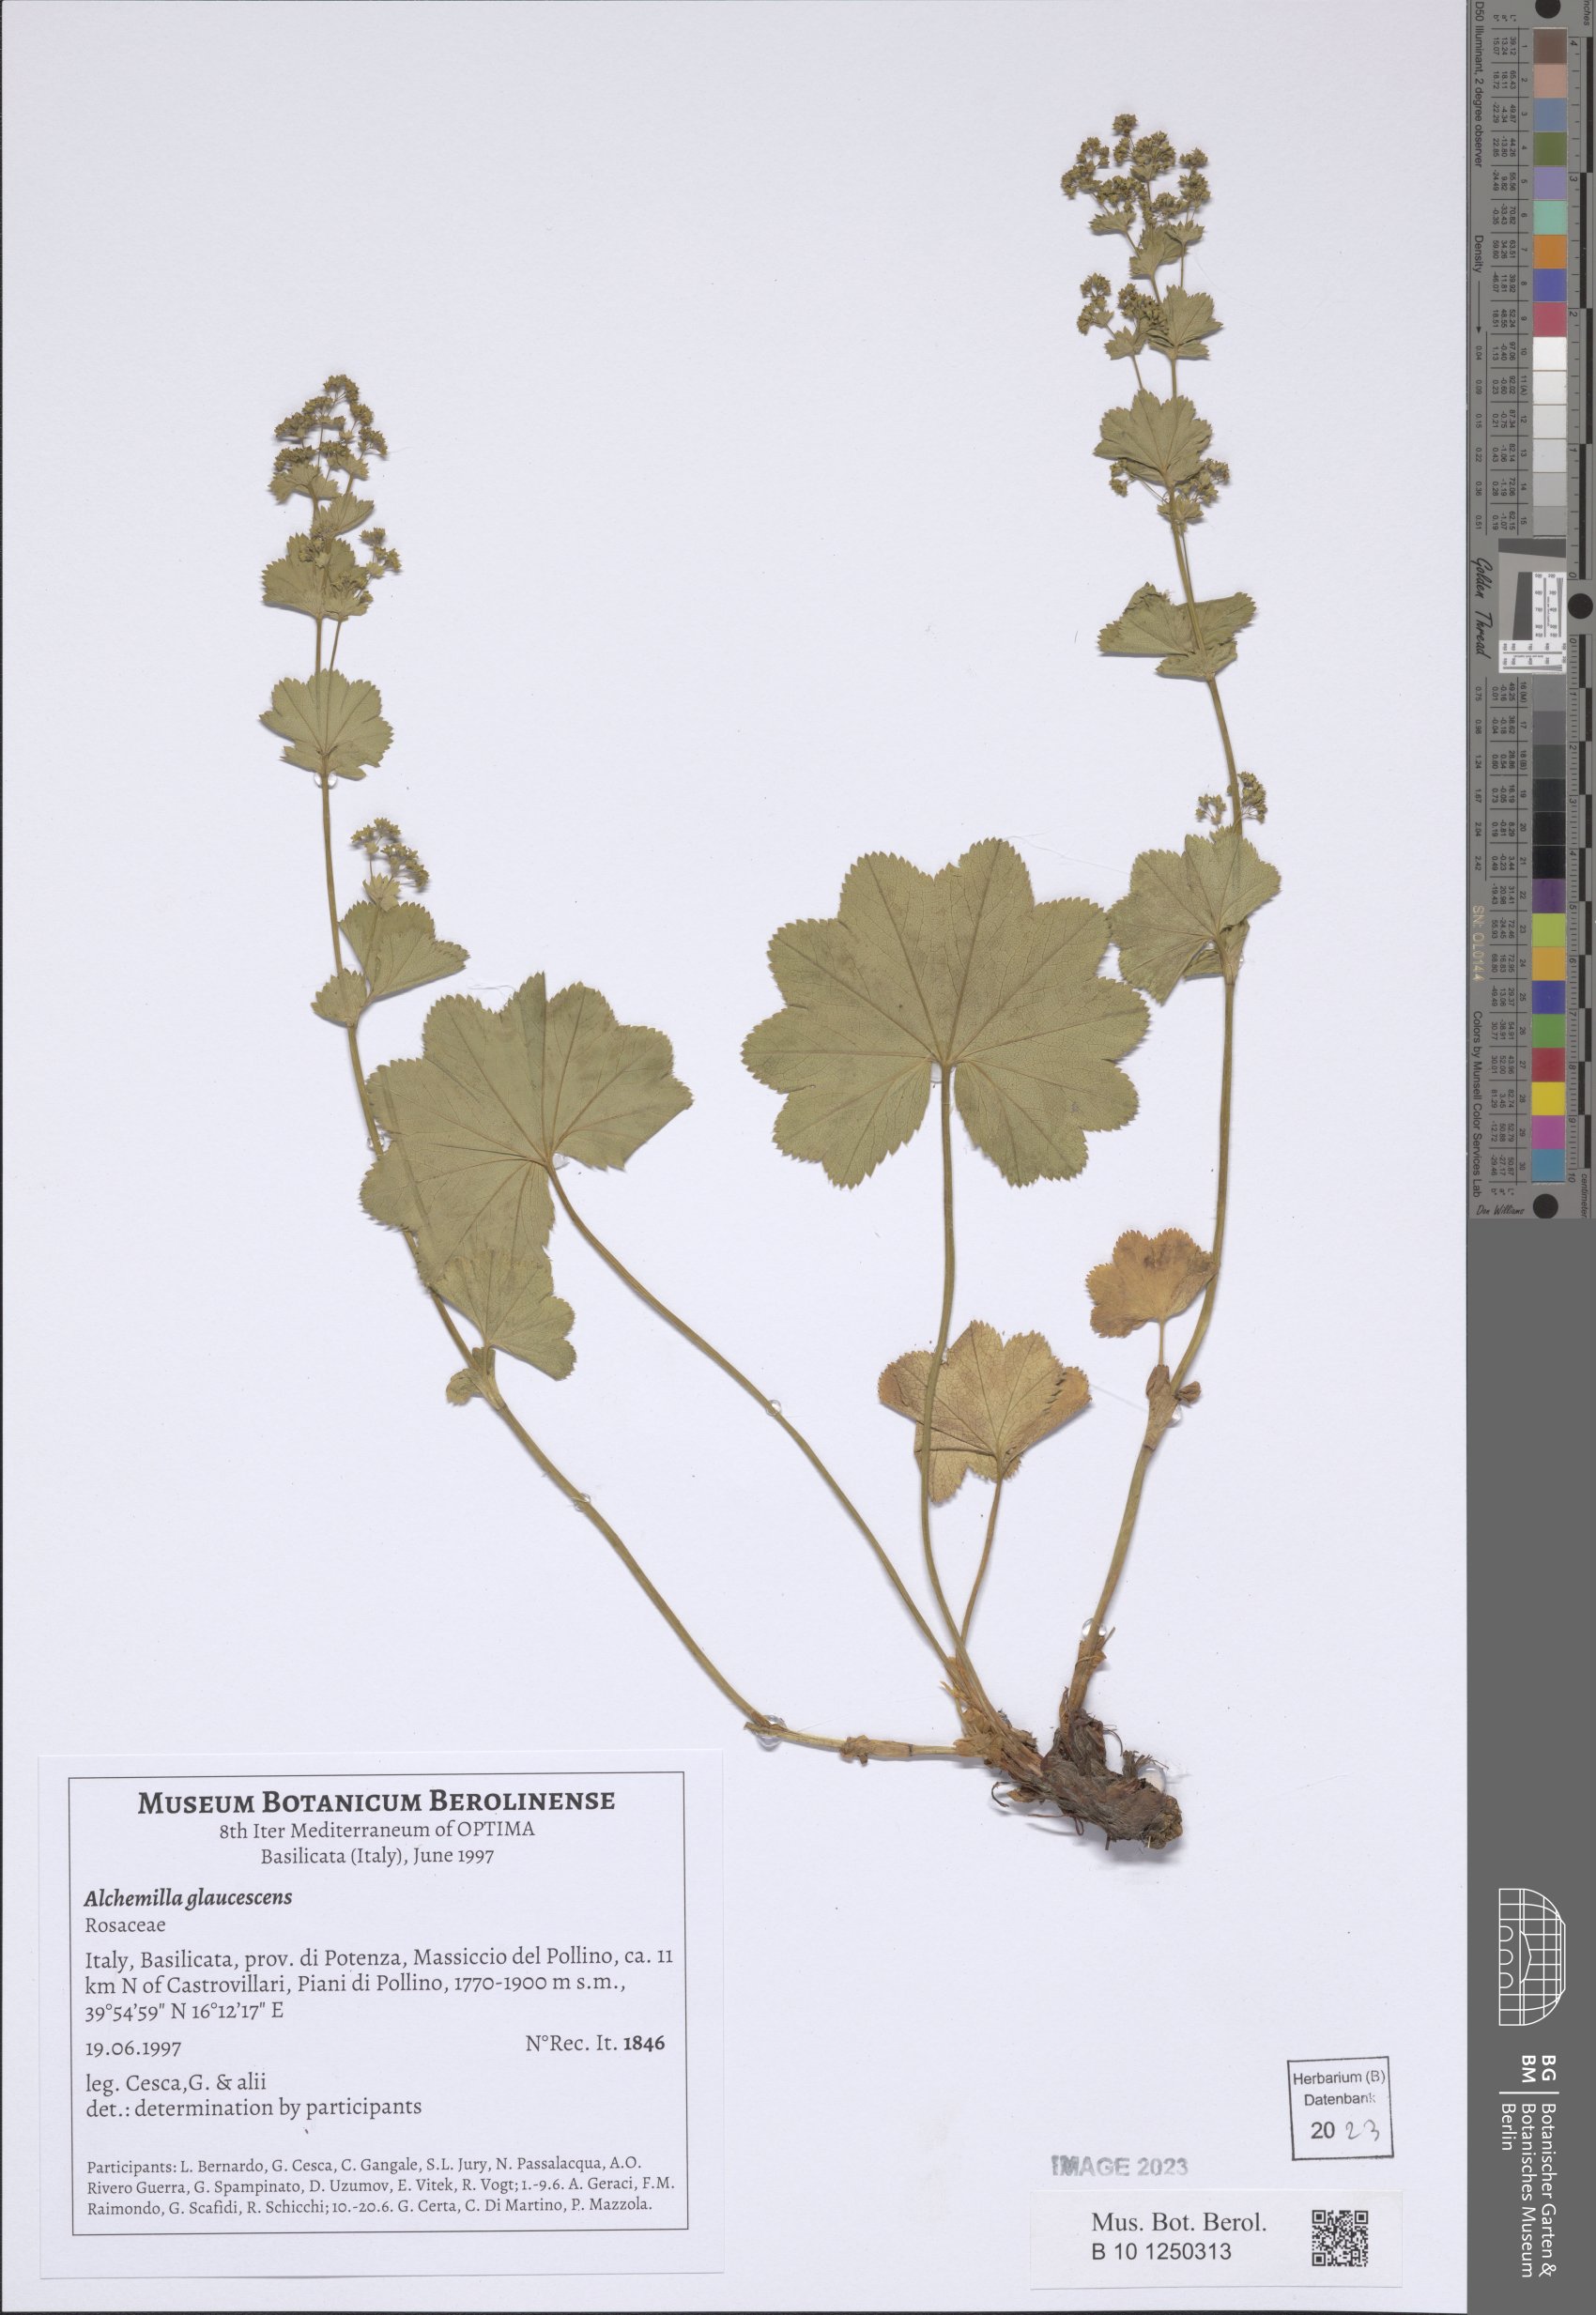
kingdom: Plantae
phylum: Tracheophyta
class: Magnoliopsida
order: Rosales
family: Rosaceae
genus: Alchemilla
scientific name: Alchemilla glaucescens
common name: Silky lady's mantle
